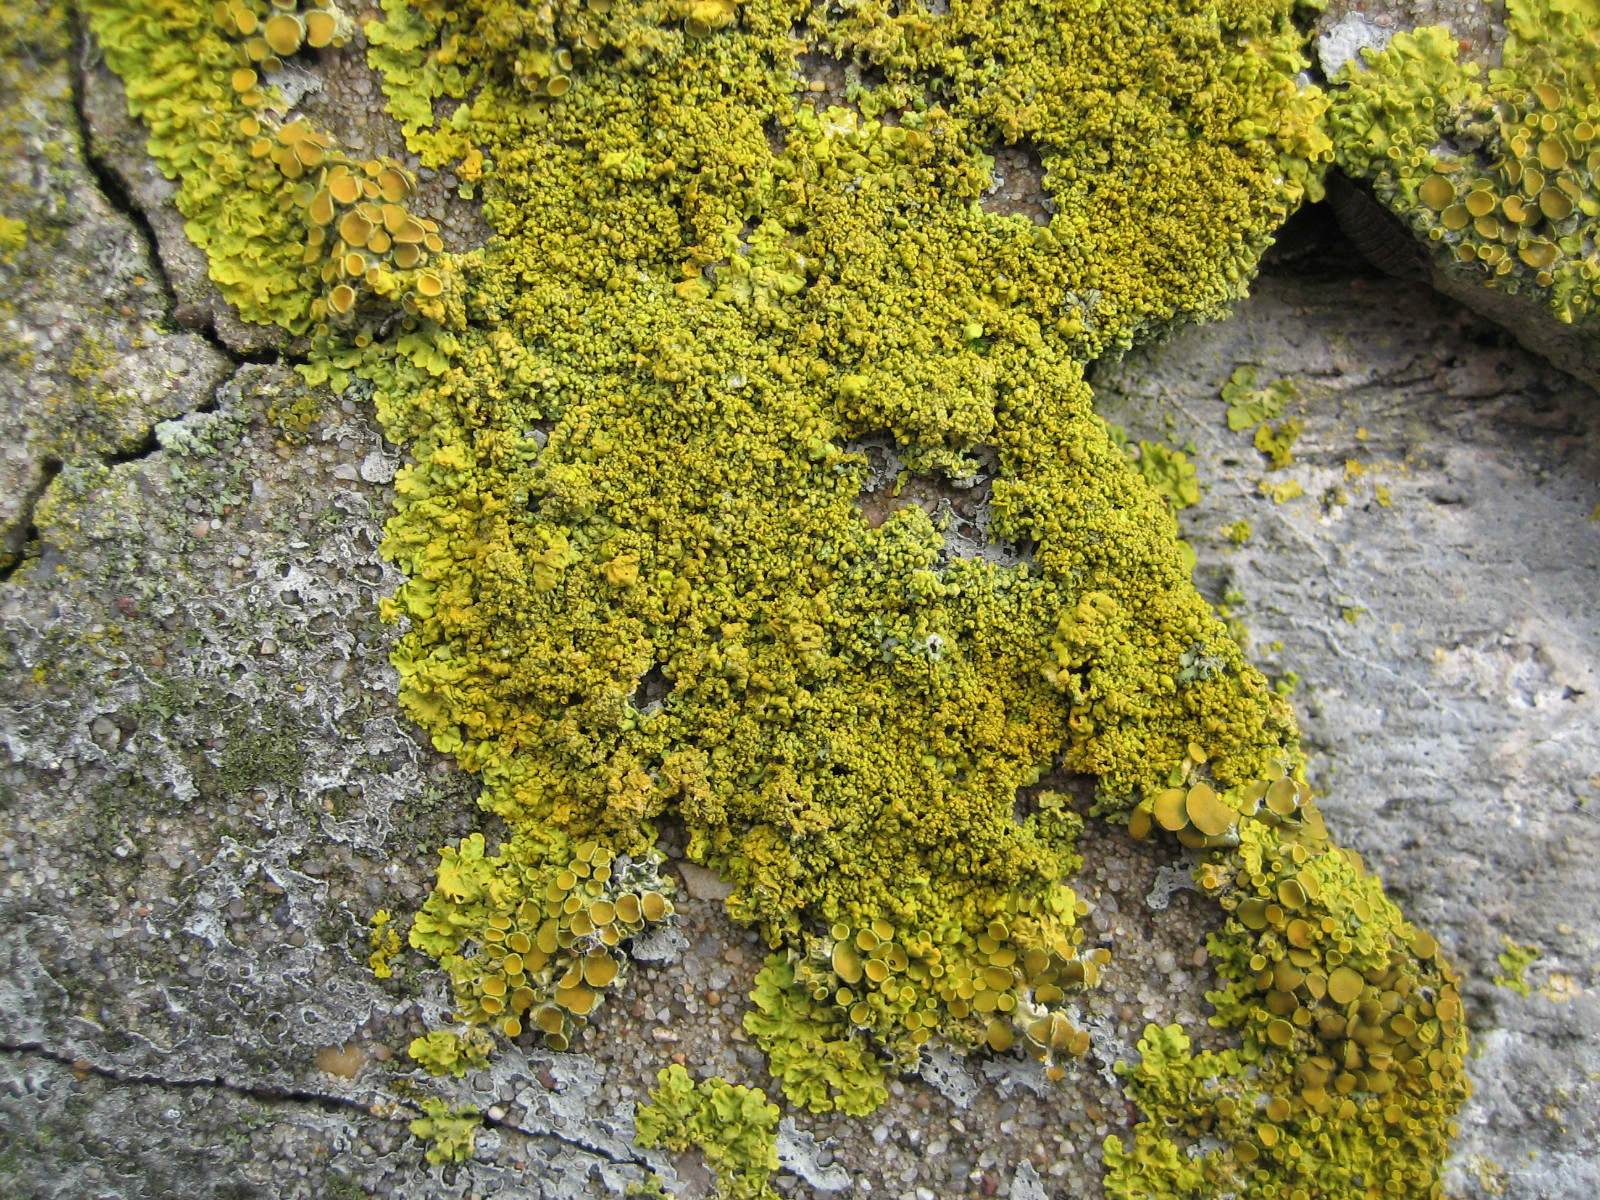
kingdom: Fungi
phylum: Ascomycota
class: Lecanoromycetes
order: Teloschistales
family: Teloschistaceae
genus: Xanthoria
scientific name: Xanthoria calcicola
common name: vortet væggelav
